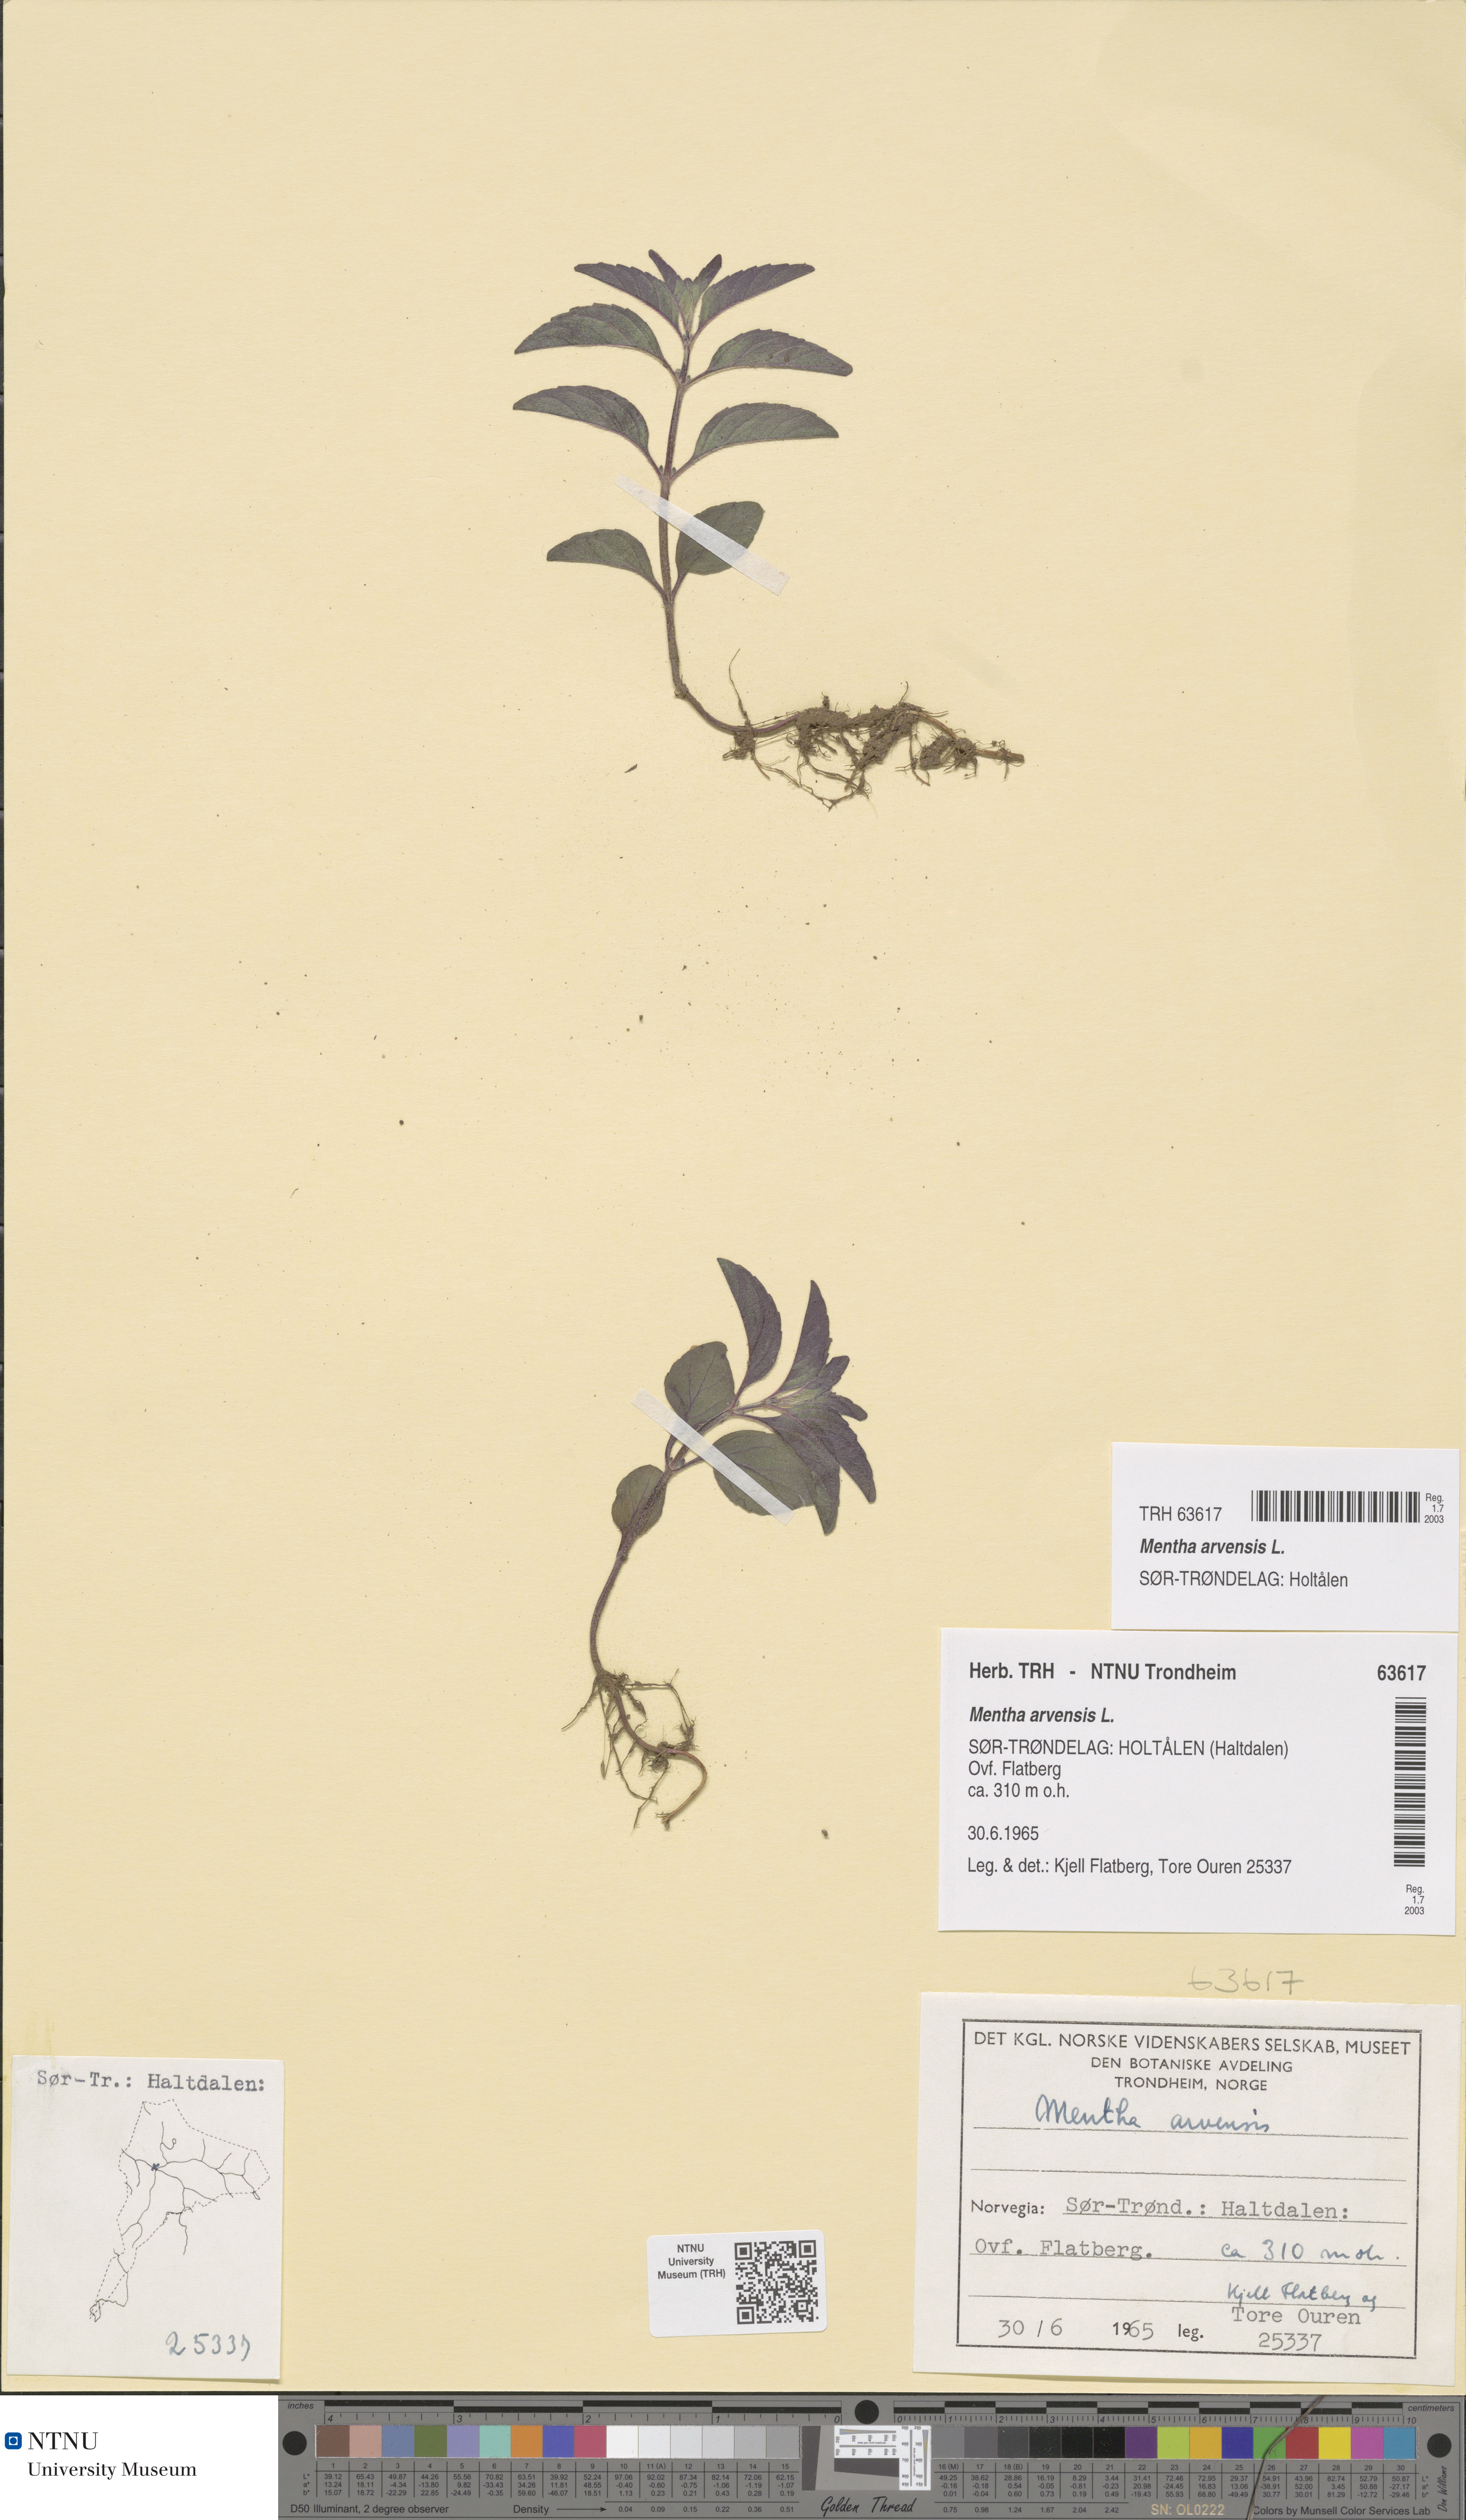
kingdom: Plantae
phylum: Tracheophyta
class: Magnoliopsida
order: Lamiales
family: Lamiaceae
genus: Mentha
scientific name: Mentha arvensis
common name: Corn mint
